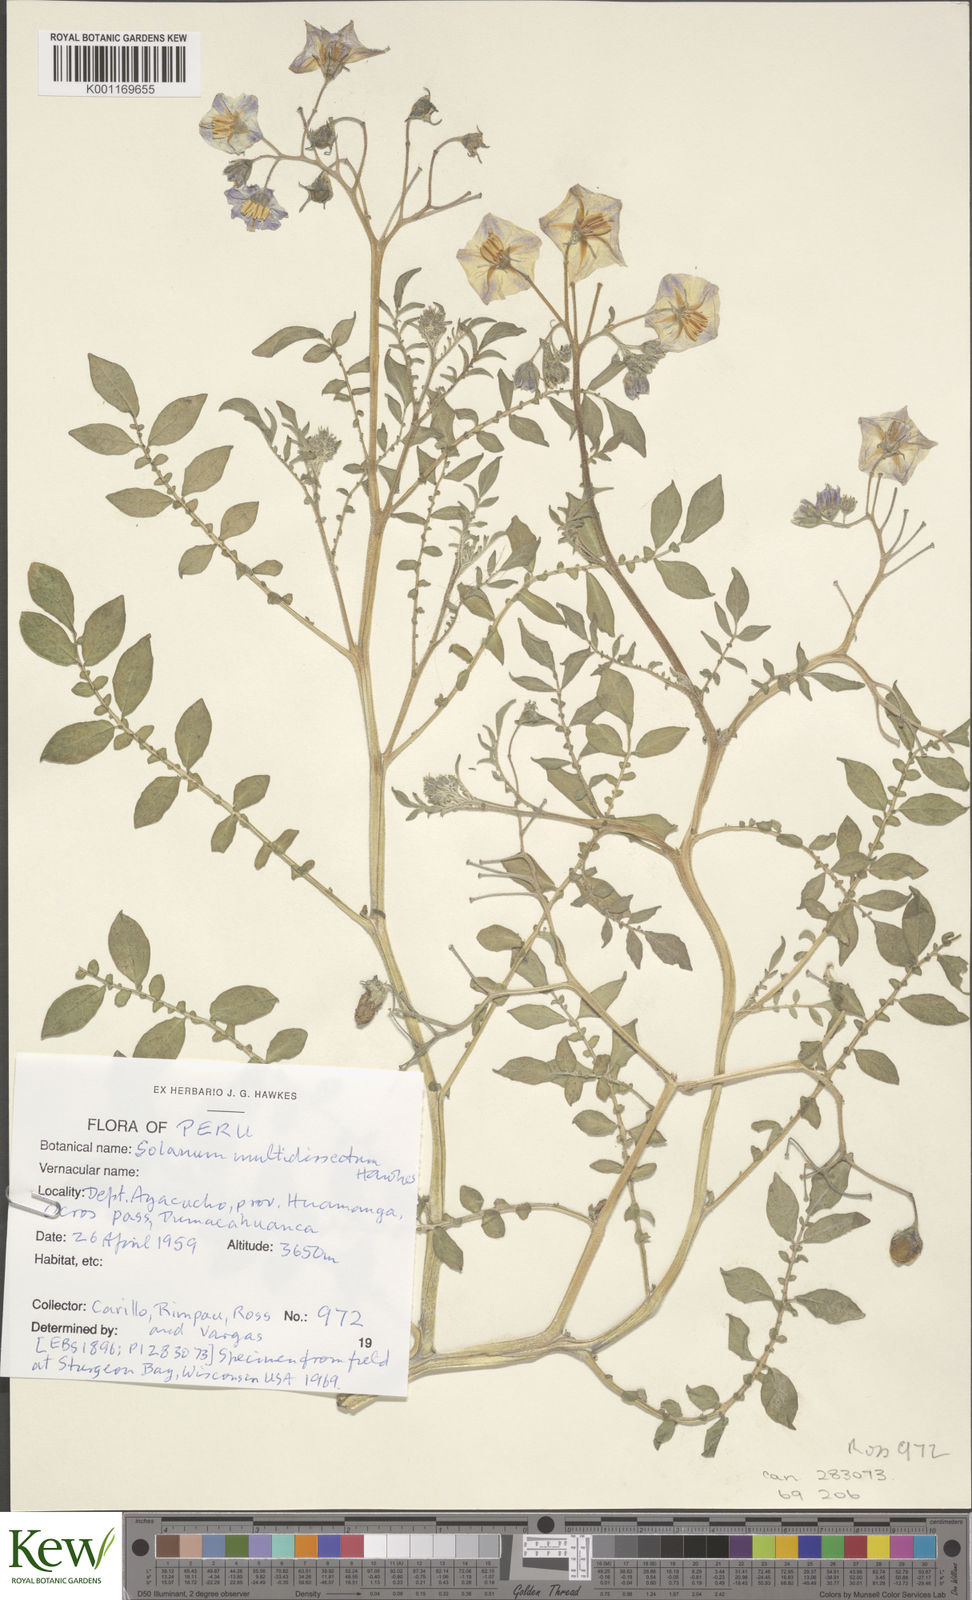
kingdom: Plantae
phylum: Tracheophyta
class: Magnoliopsida
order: Solanales
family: Solanaceae
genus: Solanum
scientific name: Solanum candolleanum
